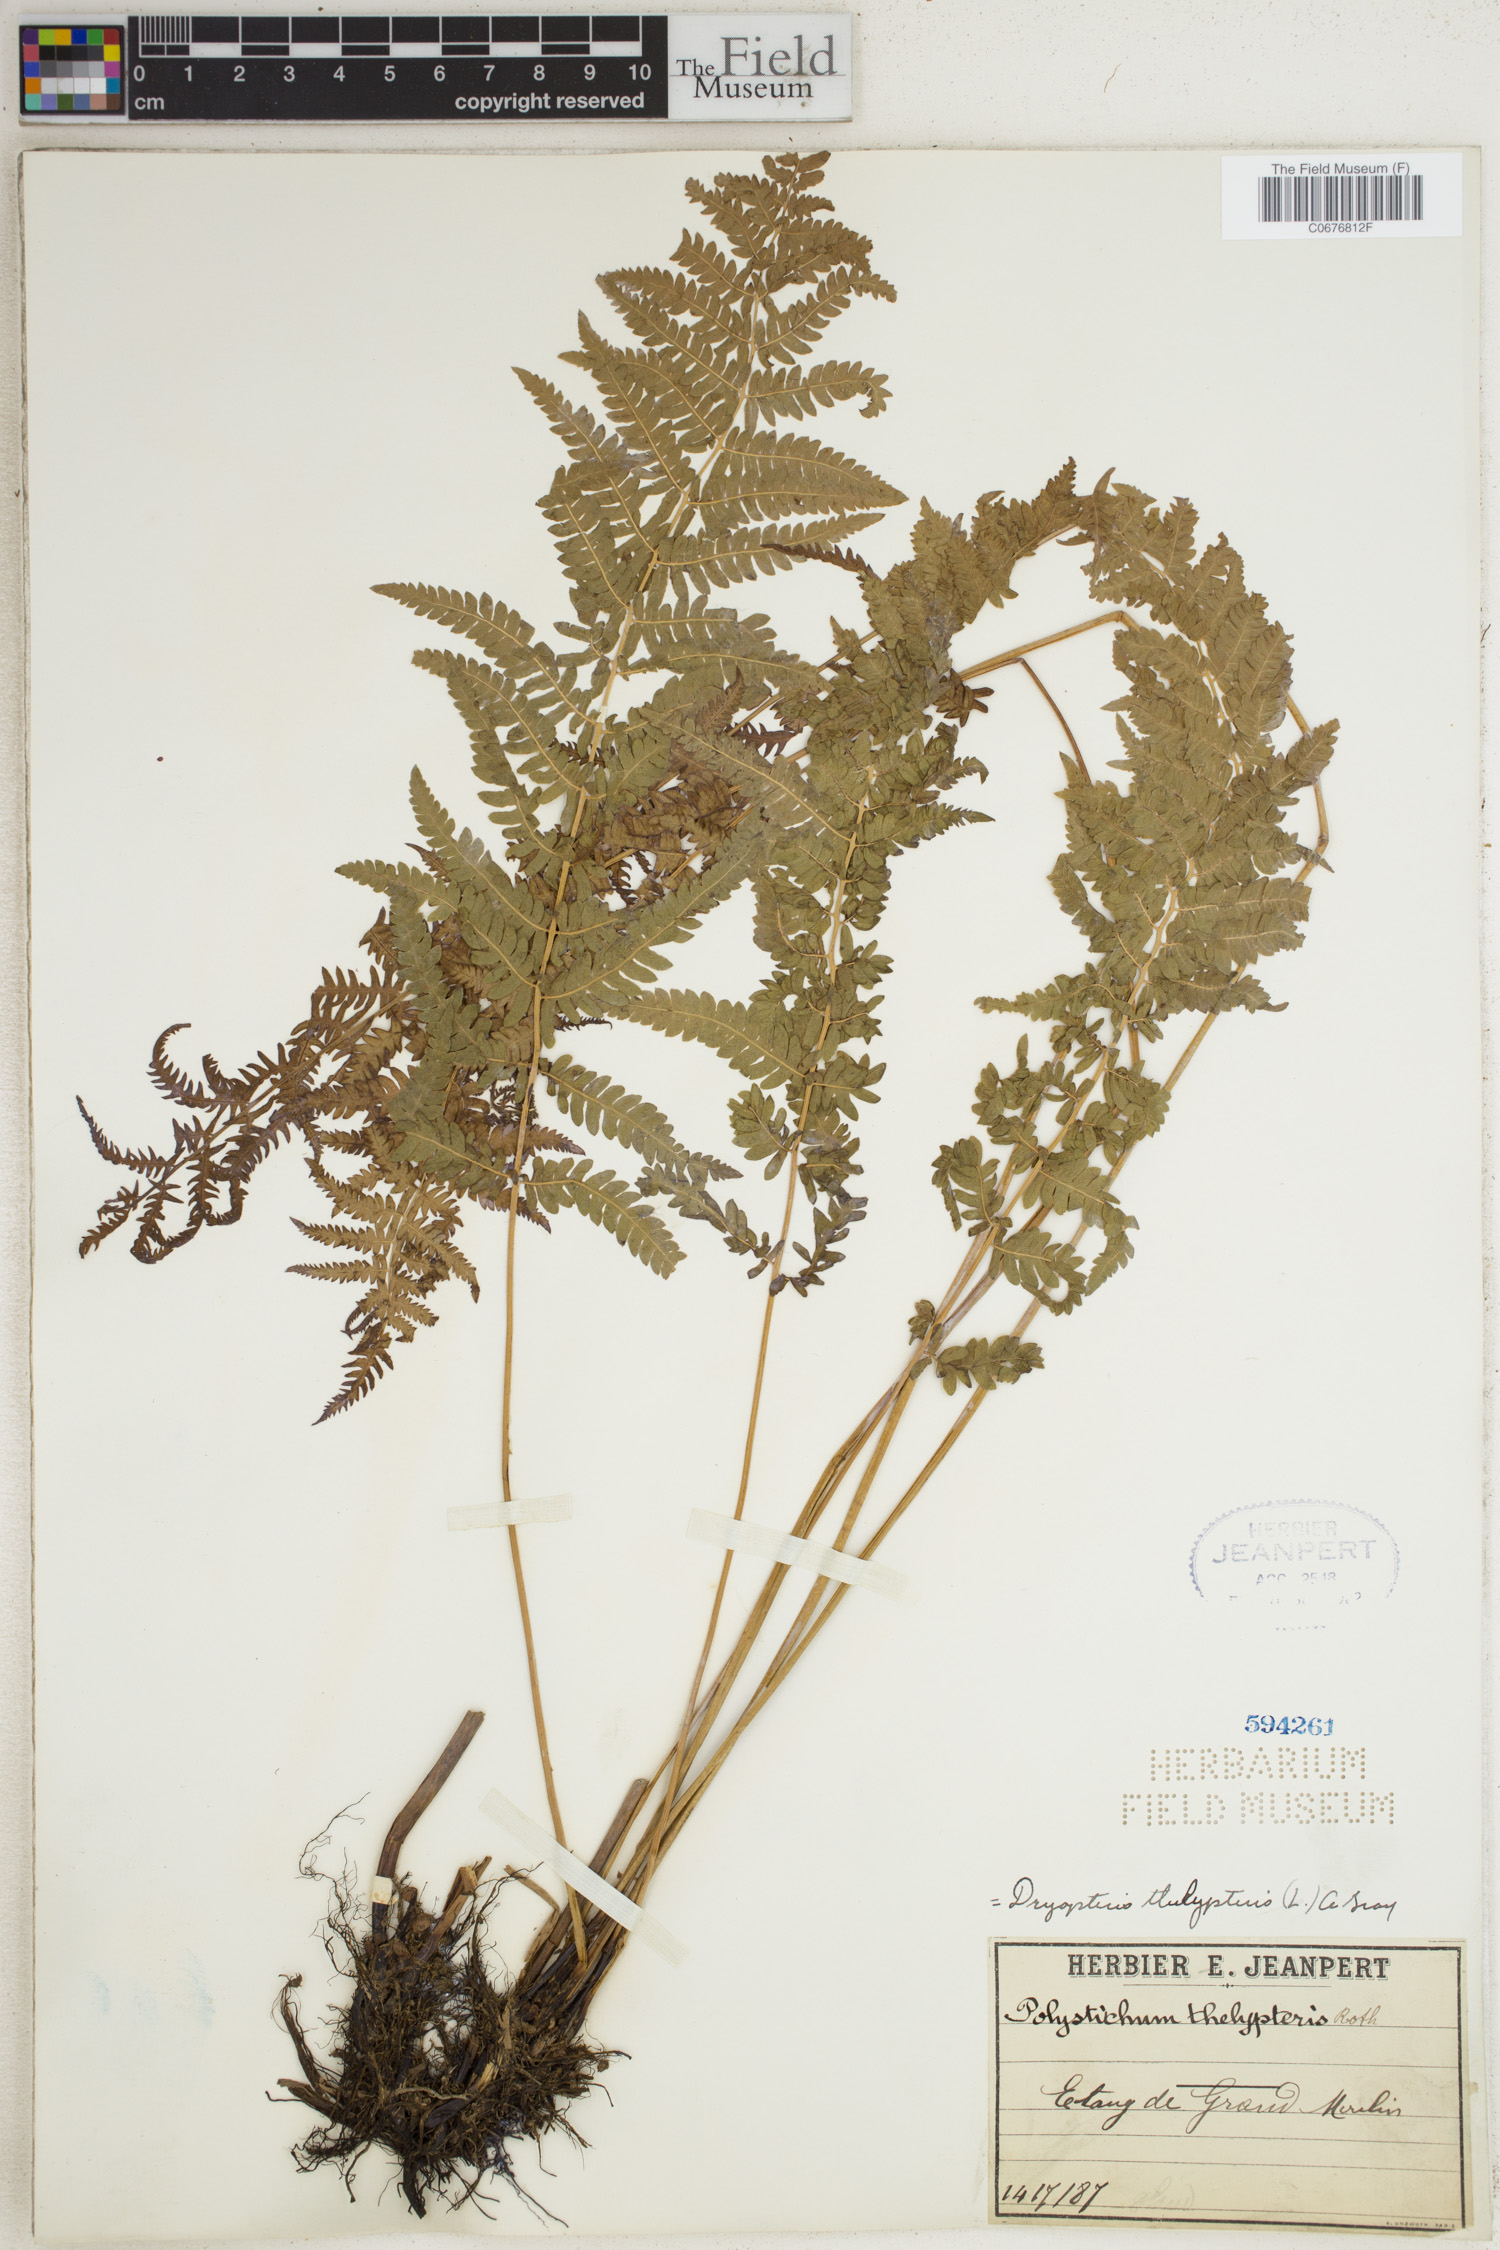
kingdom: Plantae
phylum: Tracheophyta
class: Polypodiopsida
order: Polypodiales
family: Thelypteridaceae
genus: Thelypteris
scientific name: Thelypteris palustris
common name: Marsh fern
